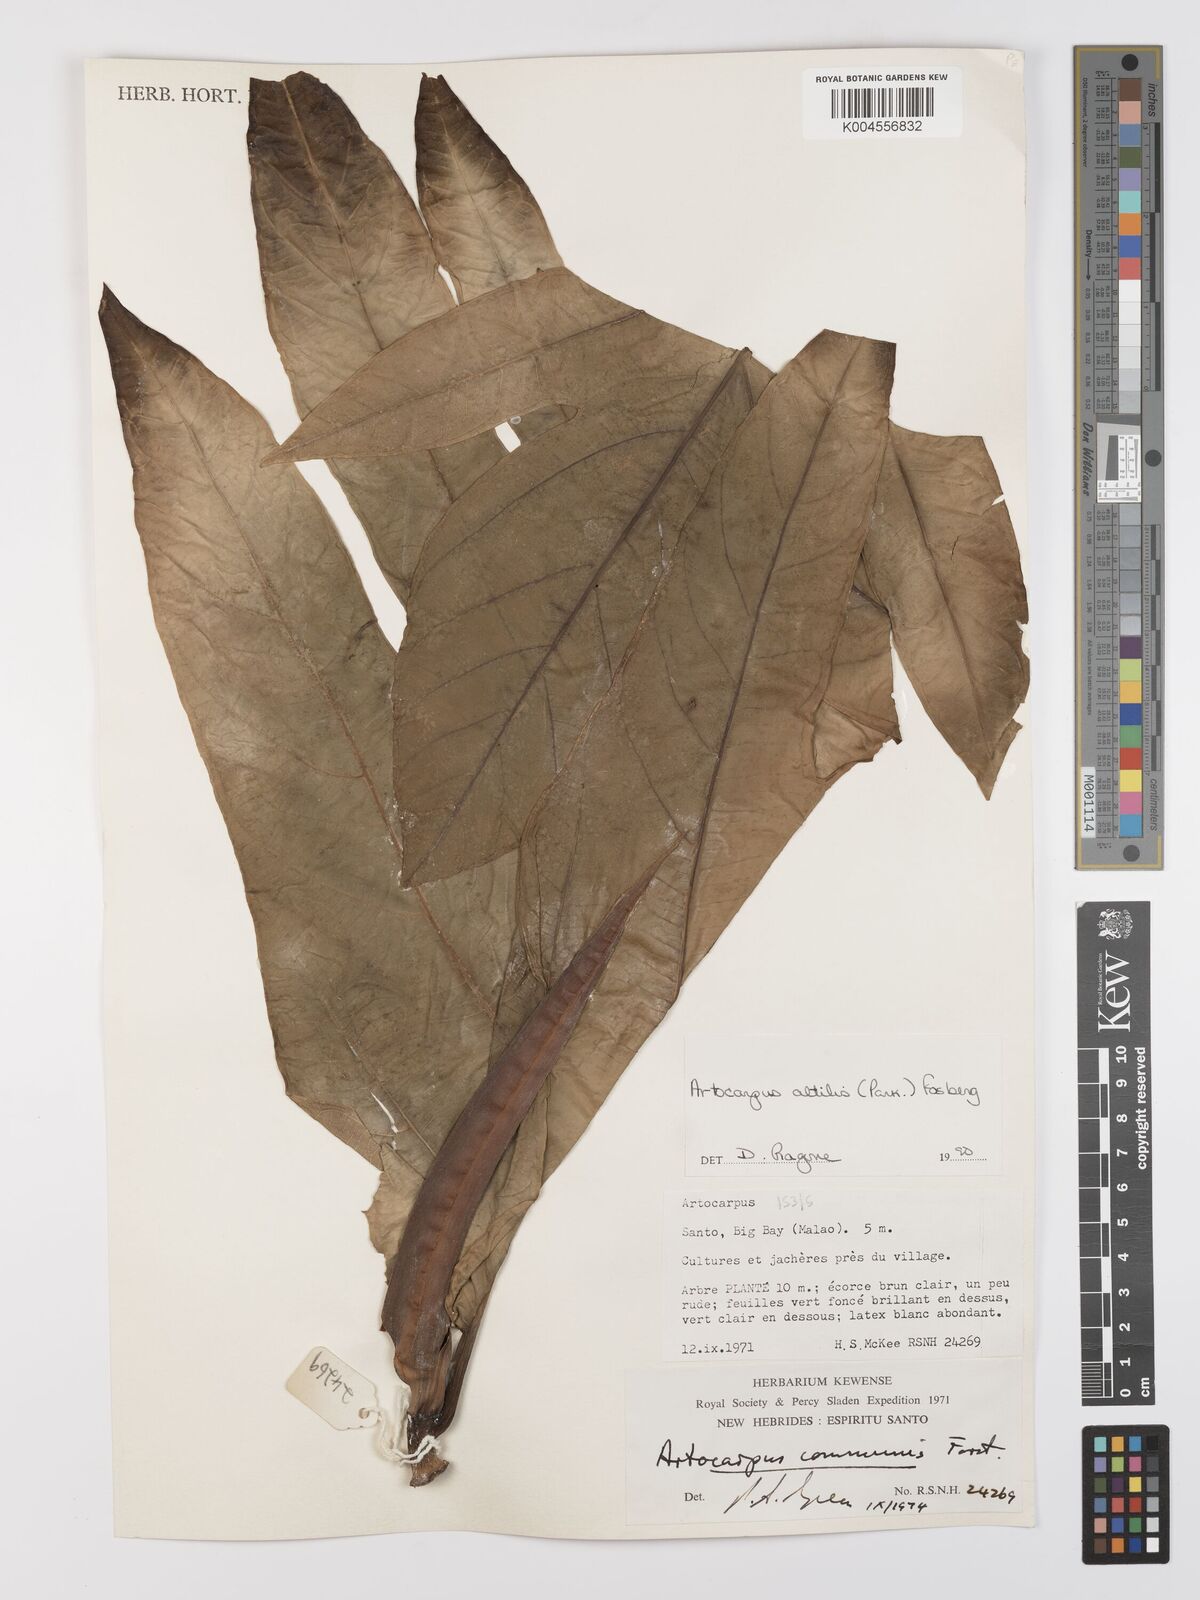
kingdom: Plantae
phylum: Tracheophyta
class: Magnoliopsida
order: Rosales
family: Moraceae
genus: Artocarpus
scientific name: Artocarpus altilis
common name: Breadfruit
